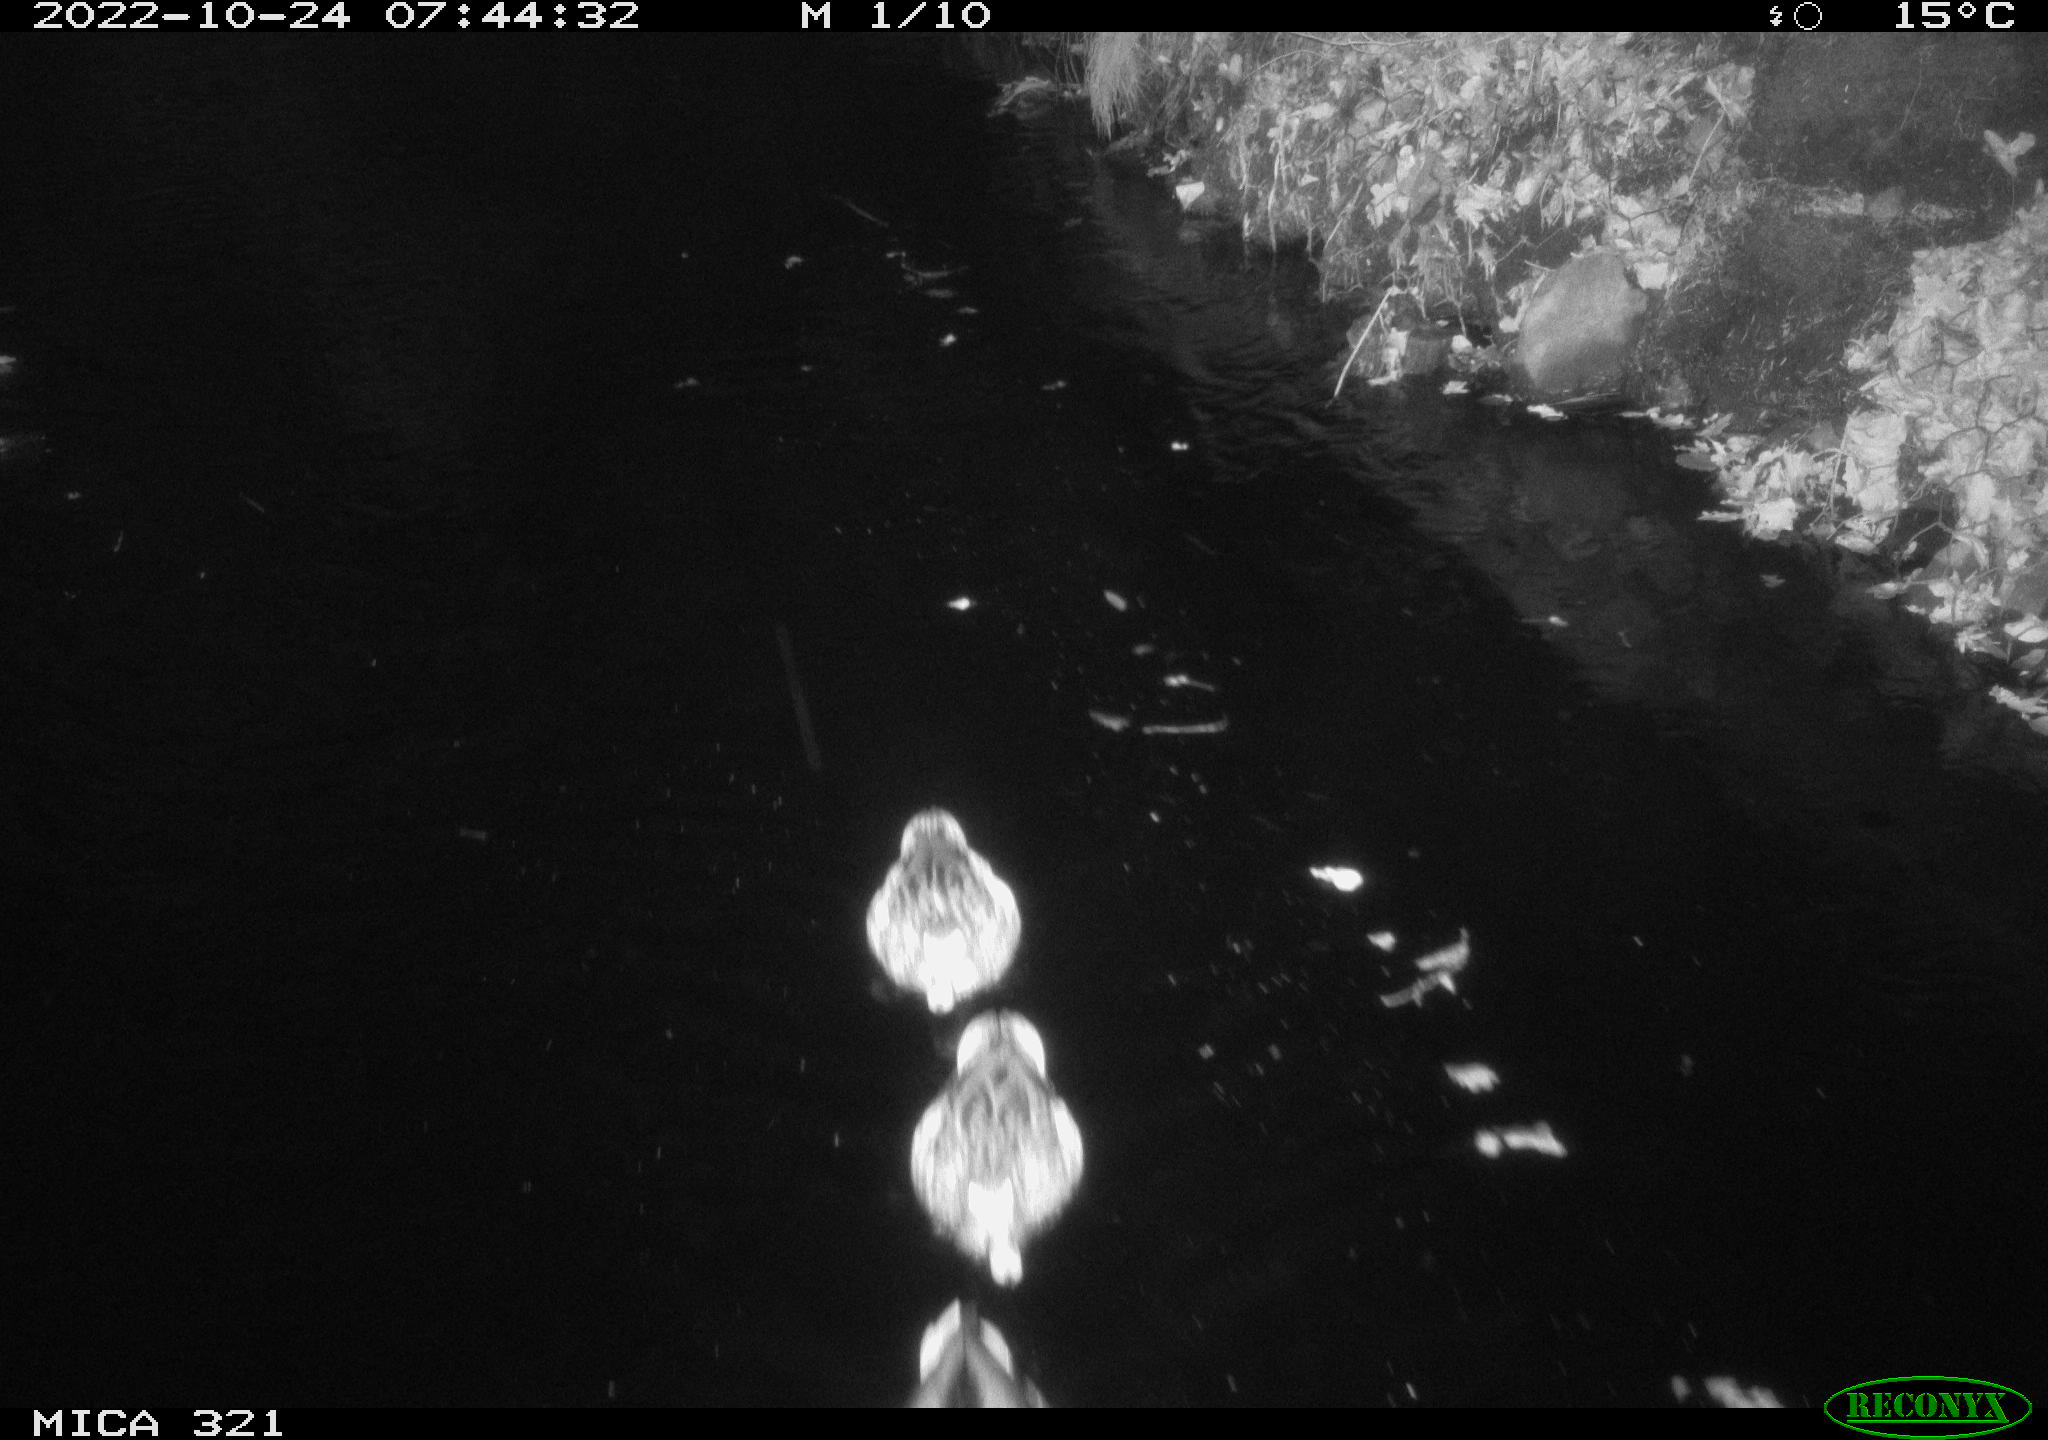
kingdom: Animalia
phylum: Chordata
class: Mammalia
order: Rodentia
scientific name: Rodentia
